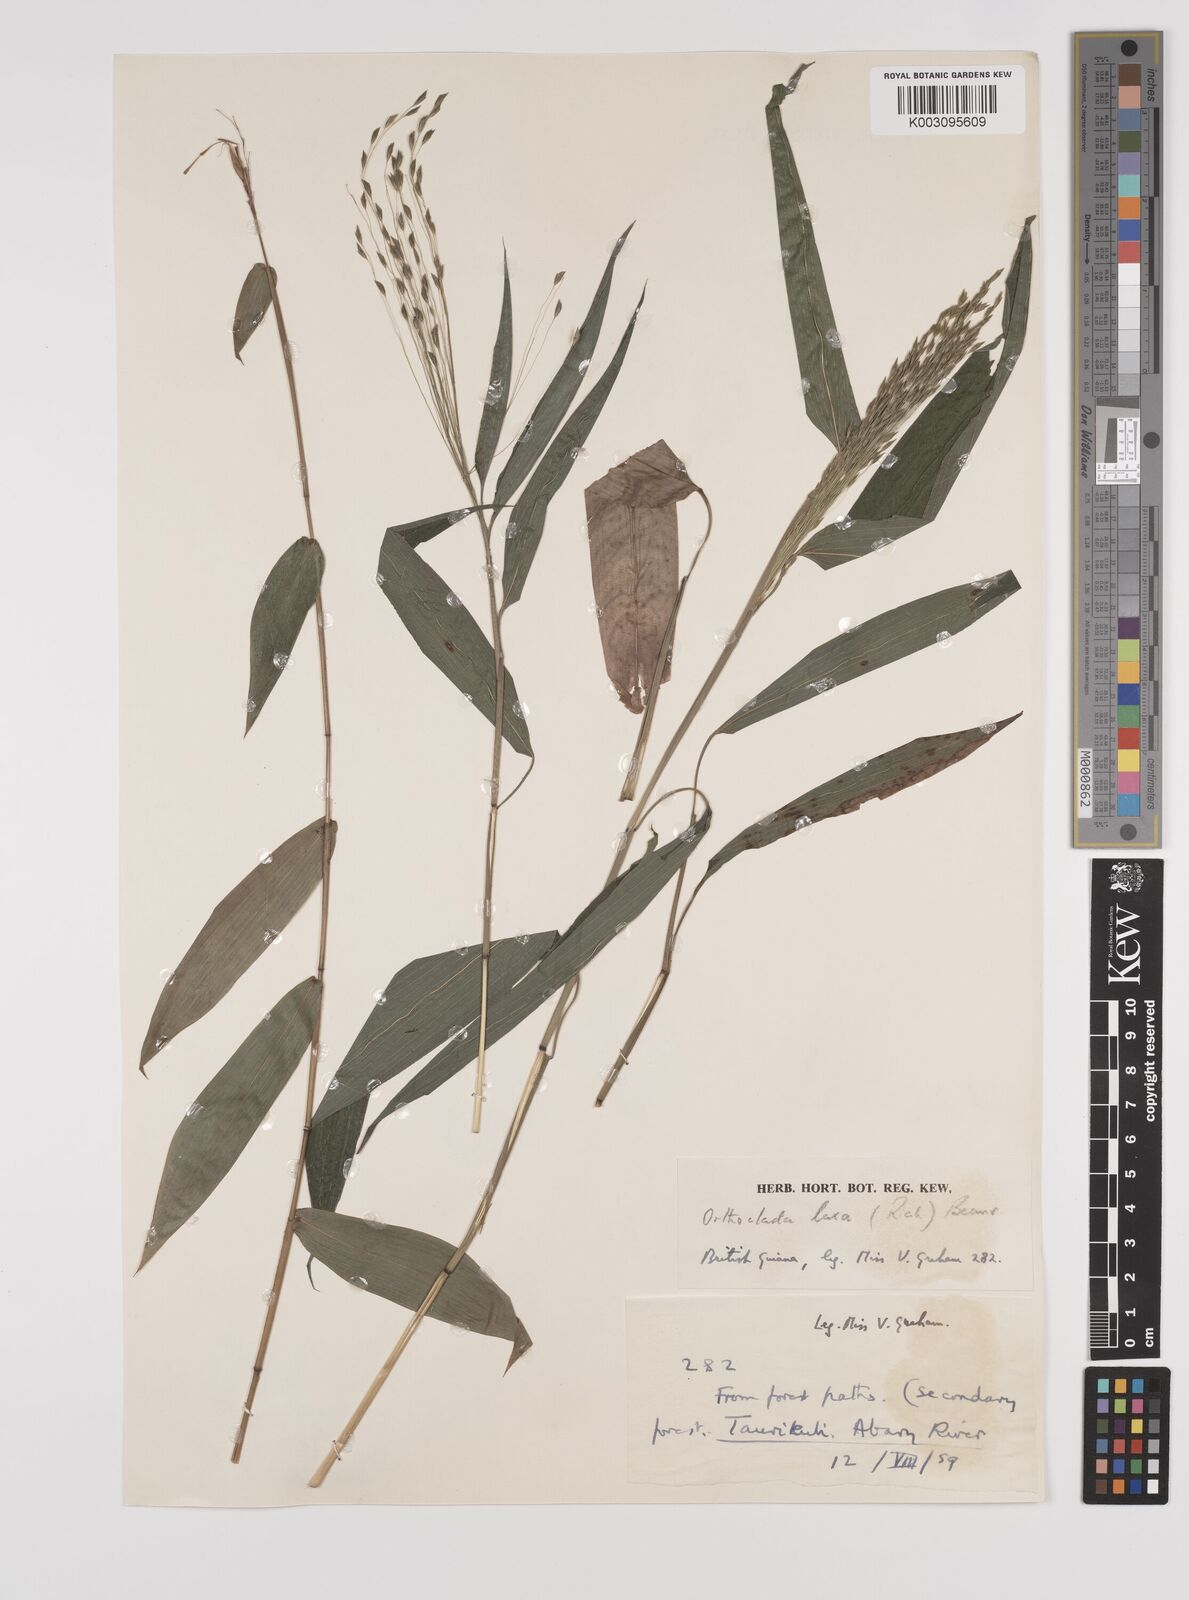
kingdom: Plantae
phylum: Tracheophyta
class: Liliopsida
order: Poales
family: Poaceae
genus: Orthoclada
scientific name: Orthoclada laxa
